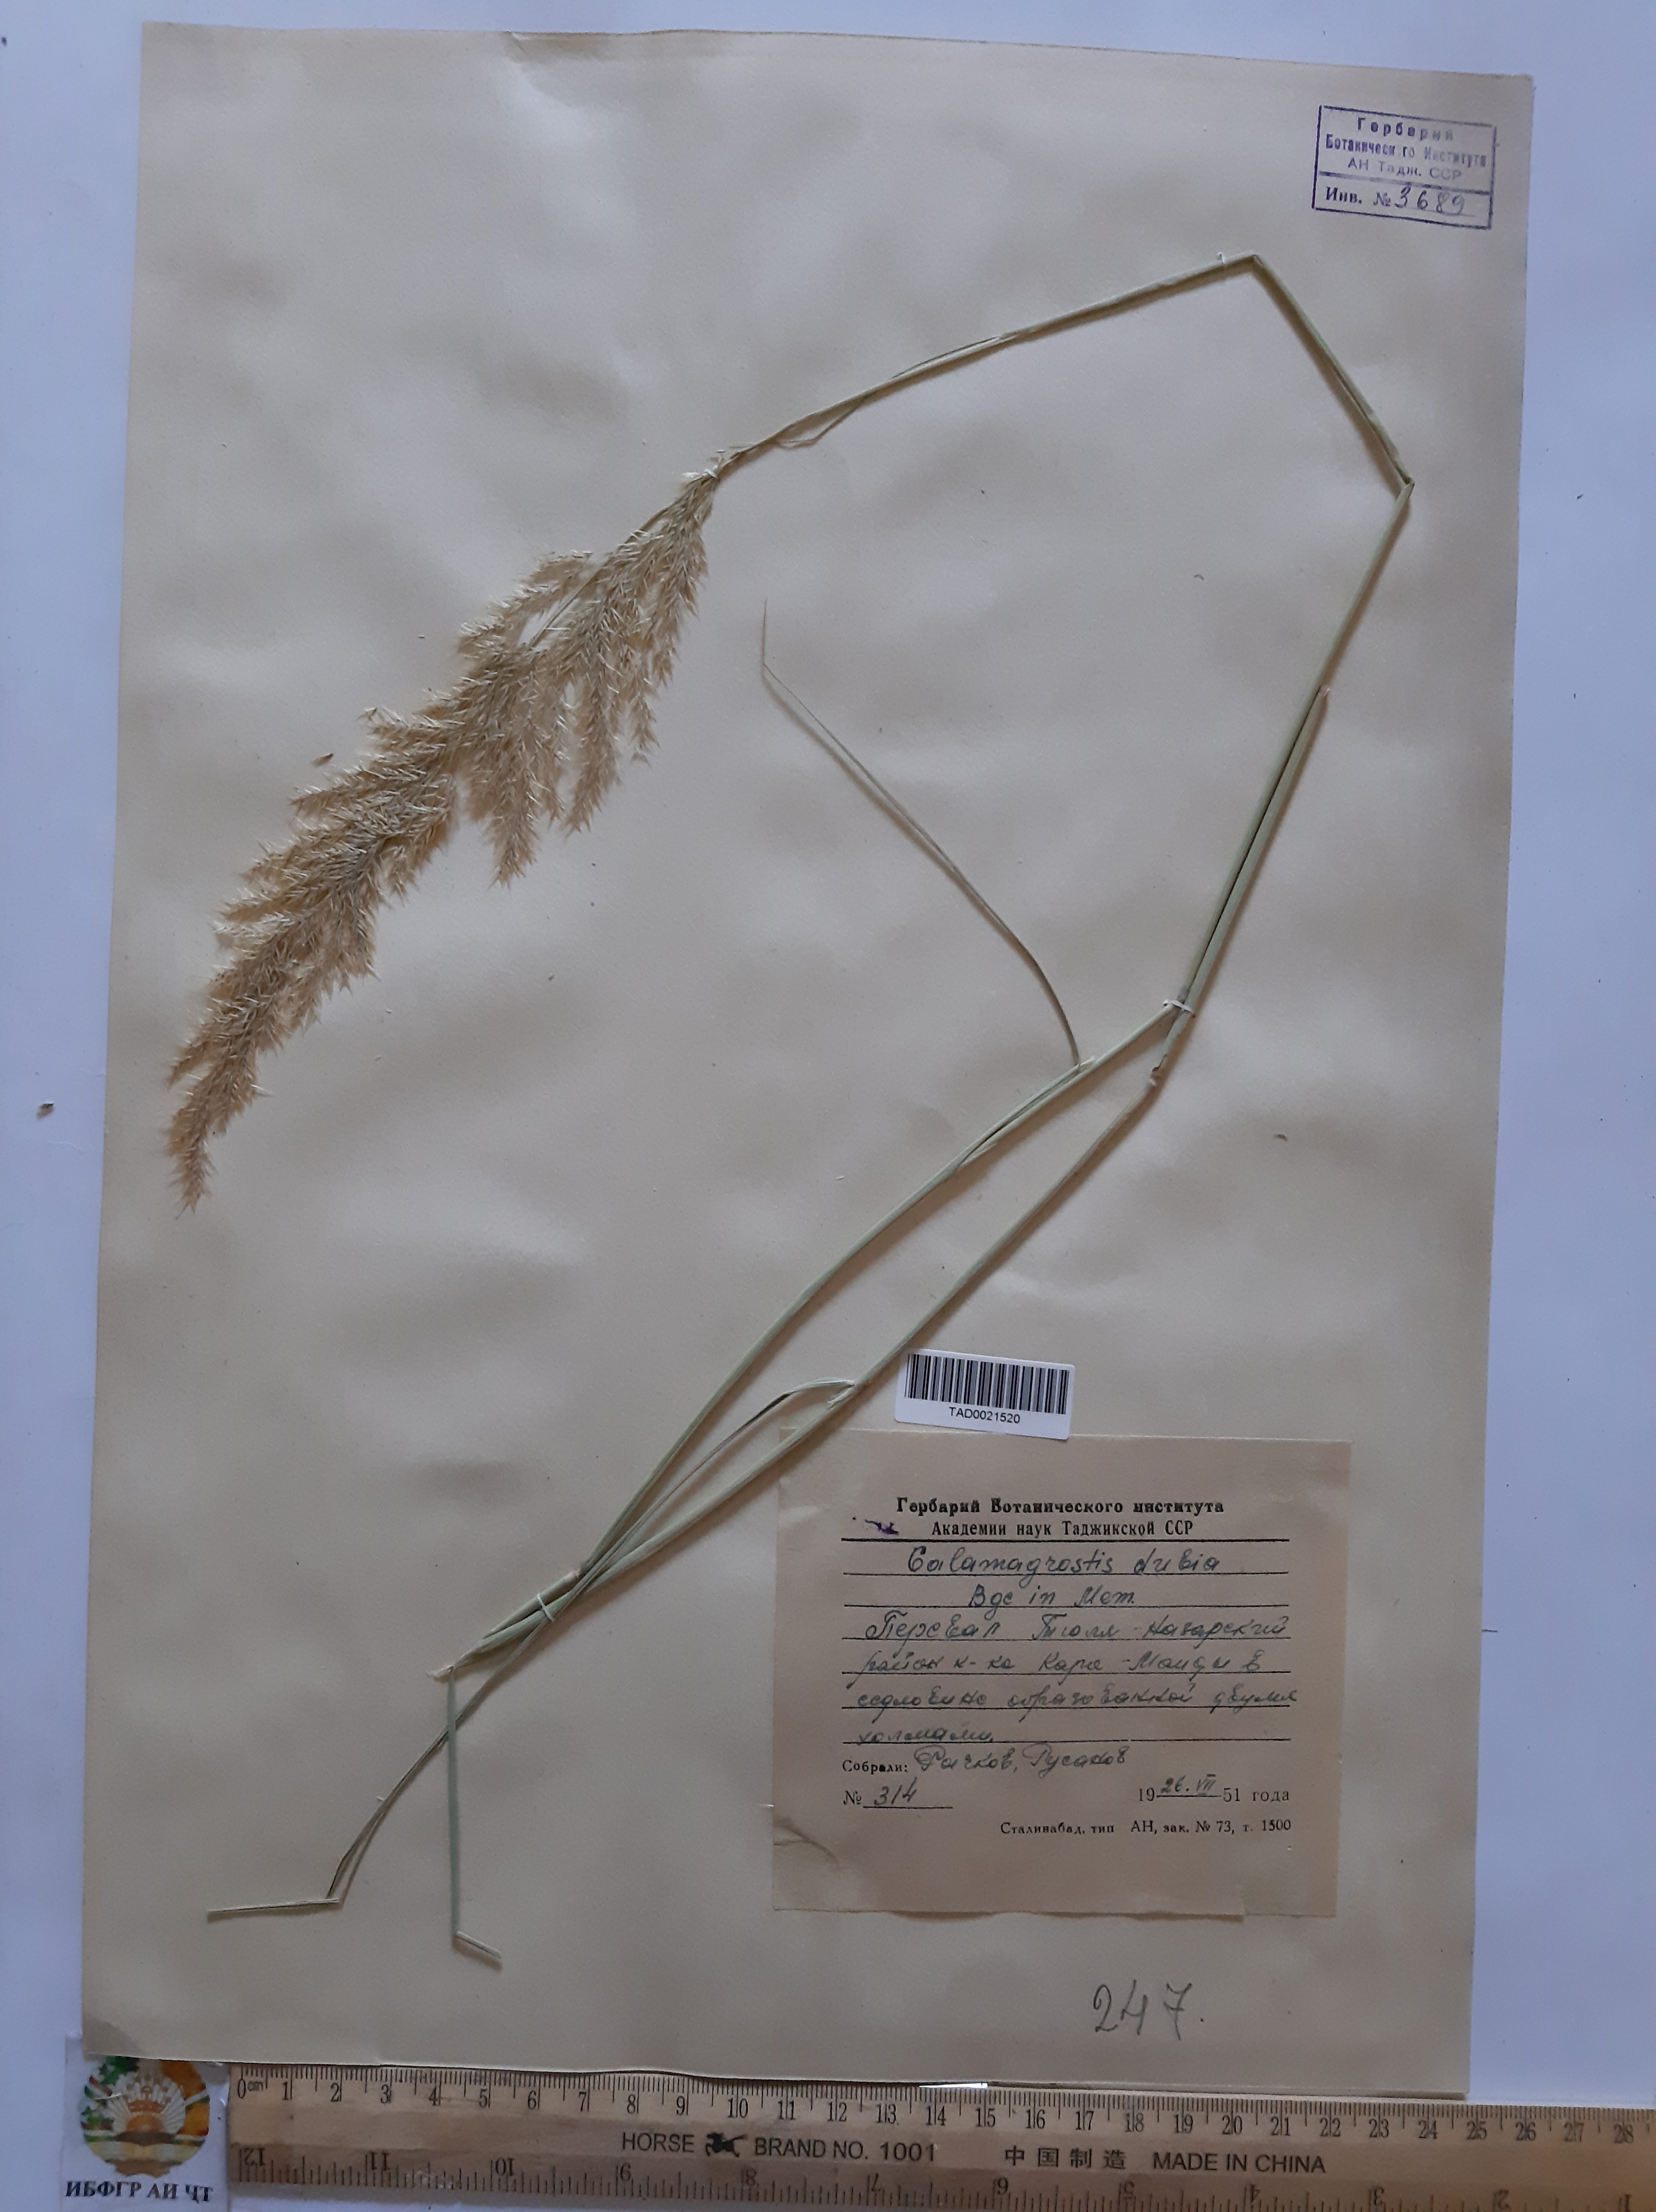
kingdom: Plantae
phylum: Tracheophyta
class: Liliopsida
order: Poales
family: Poaceae
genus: Calamagrostis
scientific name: Calamagrostis pseudophragmites
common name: Coastal small-reed
